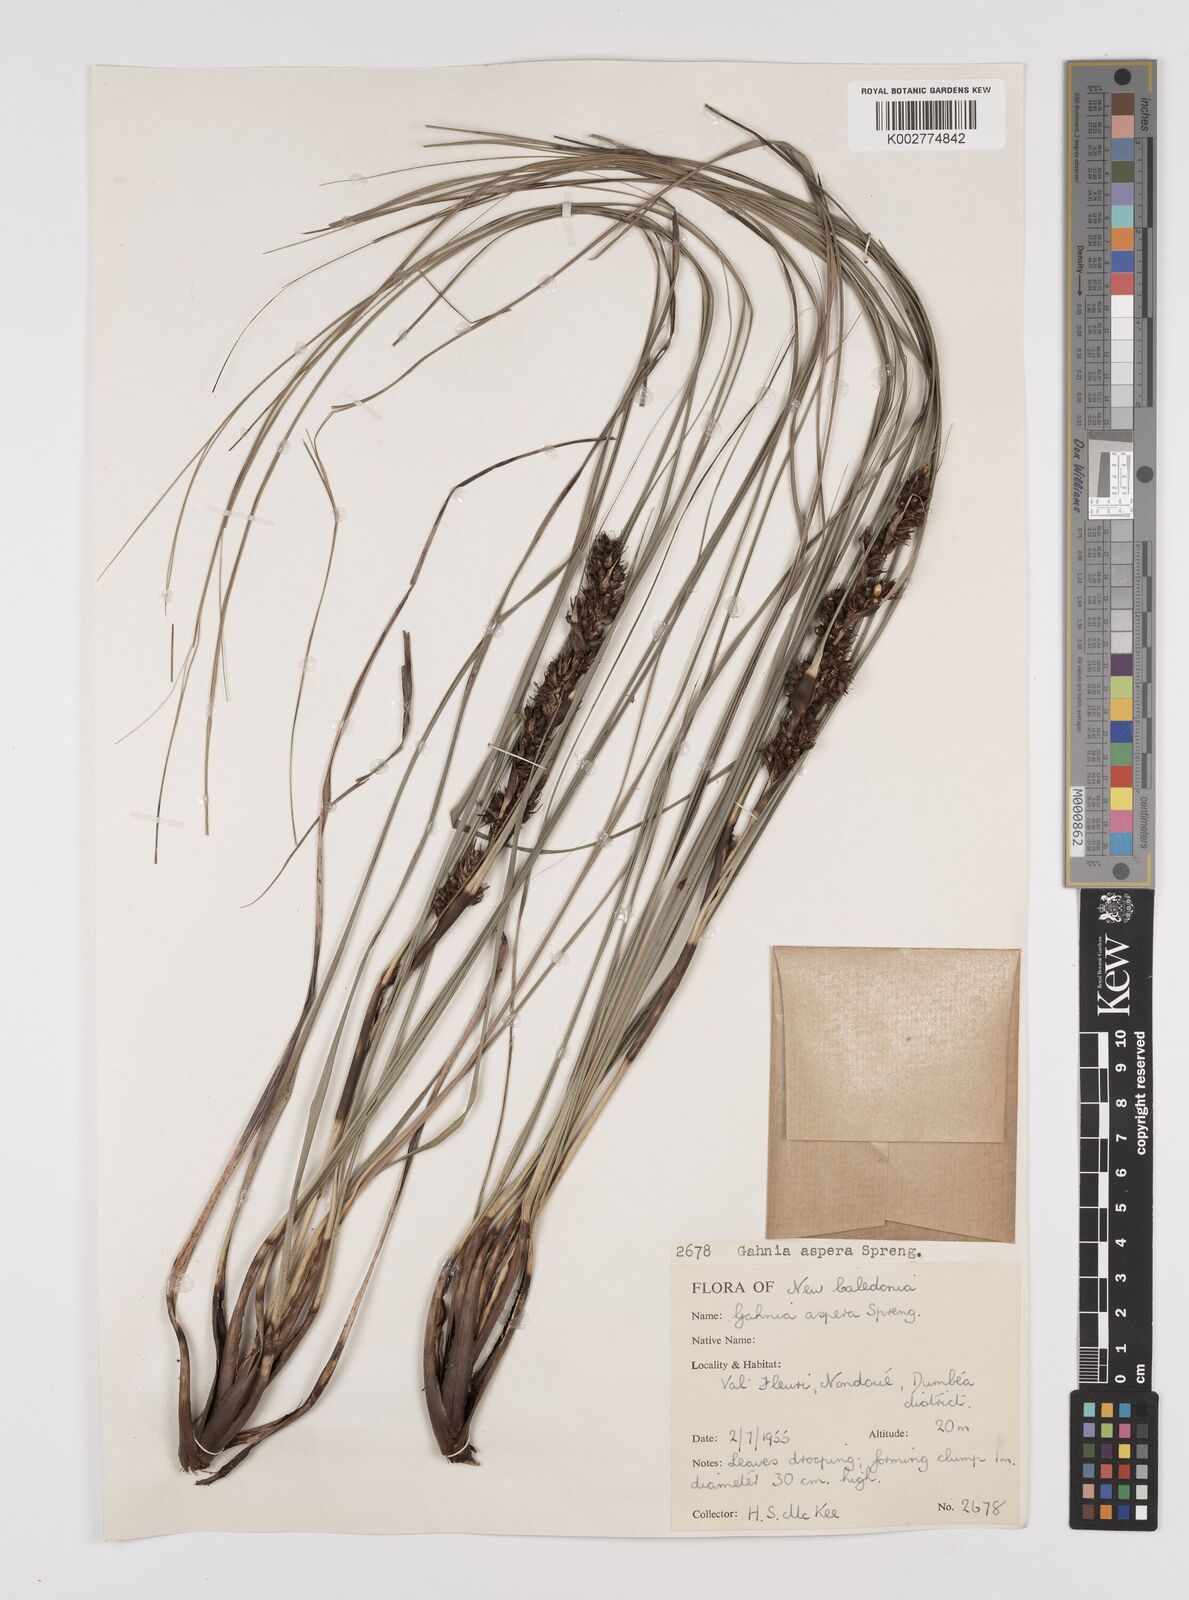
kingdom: Plantae
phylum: Tracheophyta
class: Liliopsida
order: Poales
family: Cyperaceae
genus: Gahnia
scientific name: Gahnia aspera
